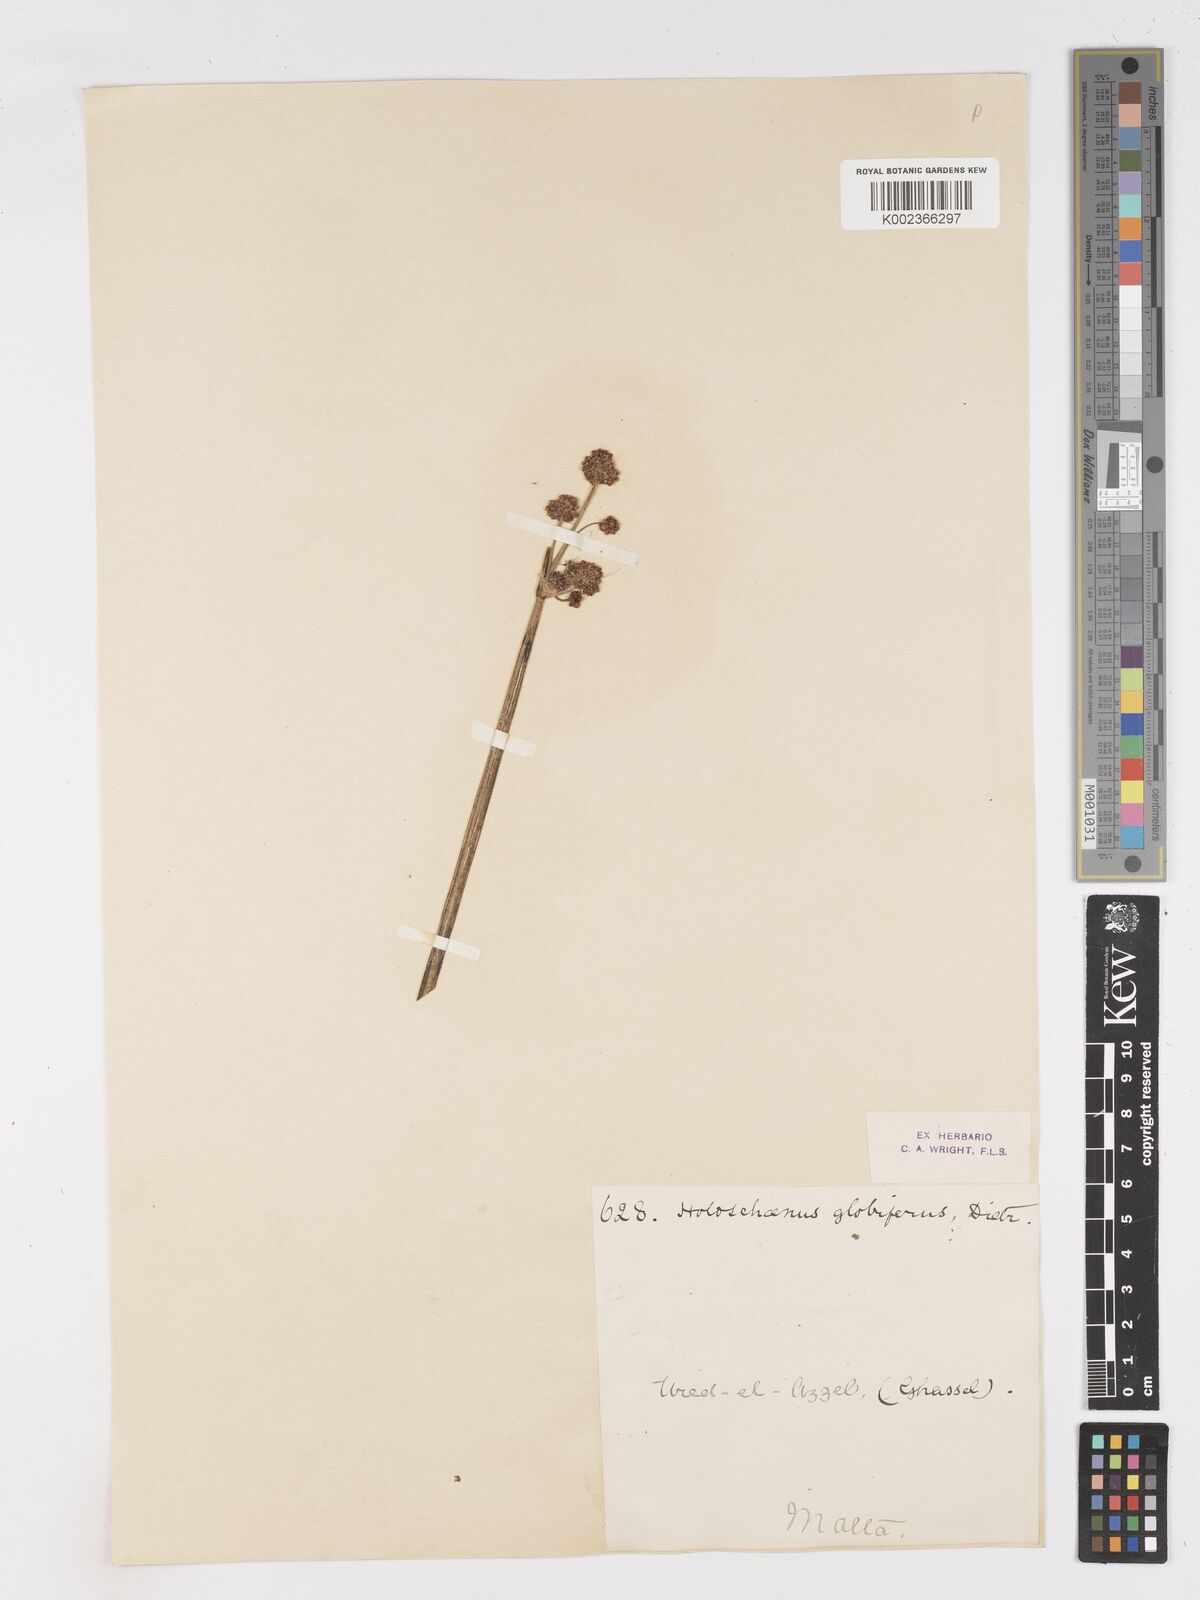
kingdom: Plantae
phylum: Tracheophyta
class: Liliopsida
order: Poales
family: Cyperaceae
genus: Scirpoides
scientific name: Scirpoides holoschoenus
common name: Round-headed club-rush
